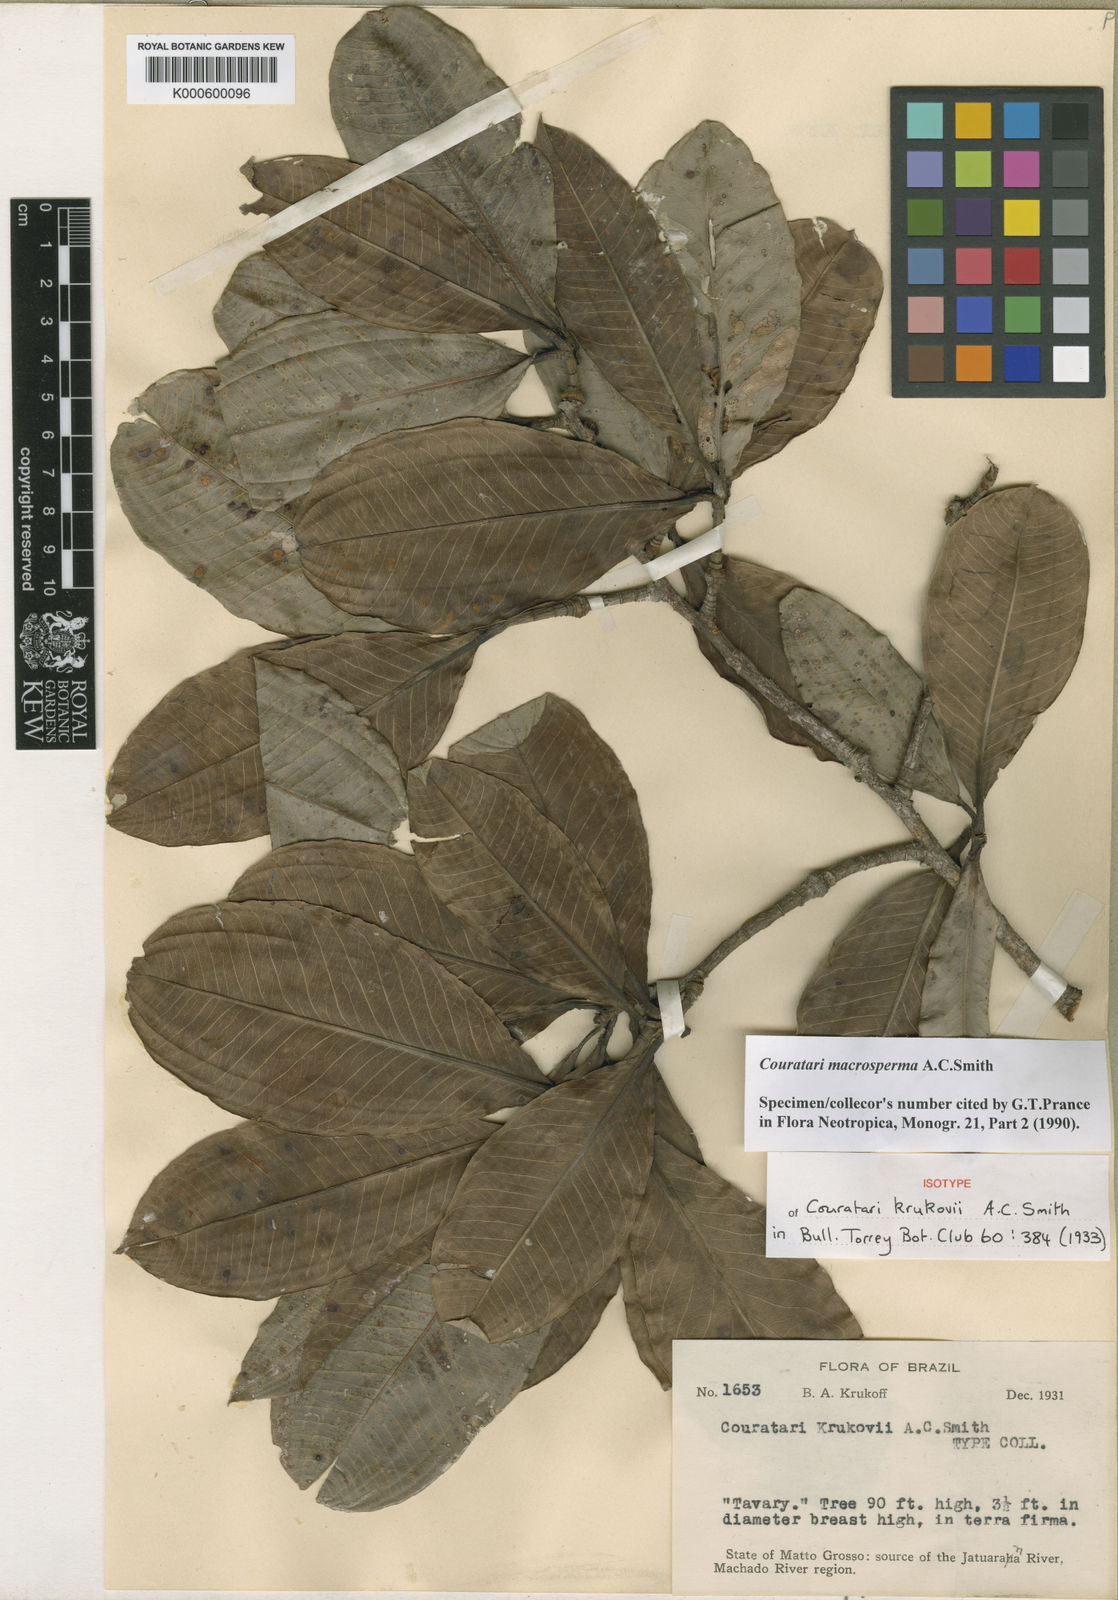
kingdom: Plantae
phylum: Tracheophyta
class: Magnoliopsida
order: Ericales
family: Lecythidaceae
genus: Couratari
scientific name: Couratari macrosperma
